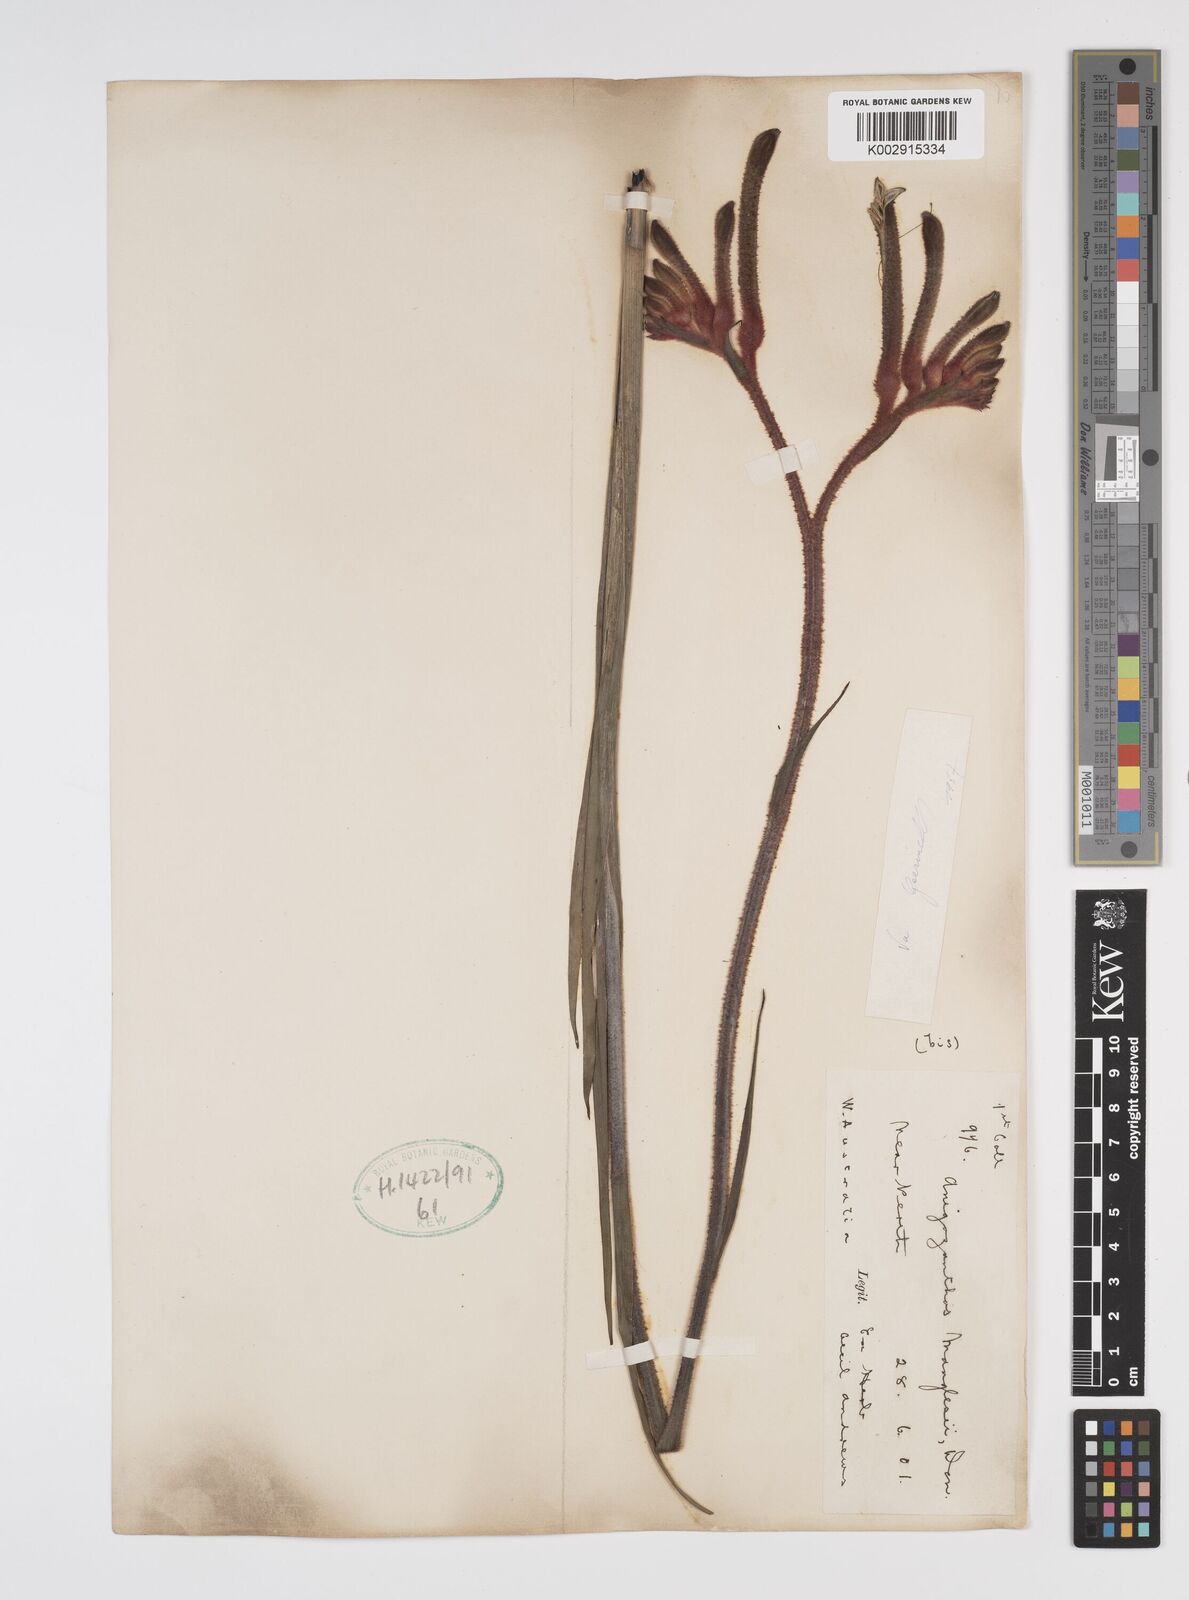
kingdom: Plantae
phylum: Tracheophyta
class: Liliopsida
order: Commelinales
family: Haemodoraceae
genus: Anigozanthos
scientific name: Anigozanthos manglesii
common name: Mangles's kangaroo-paw
